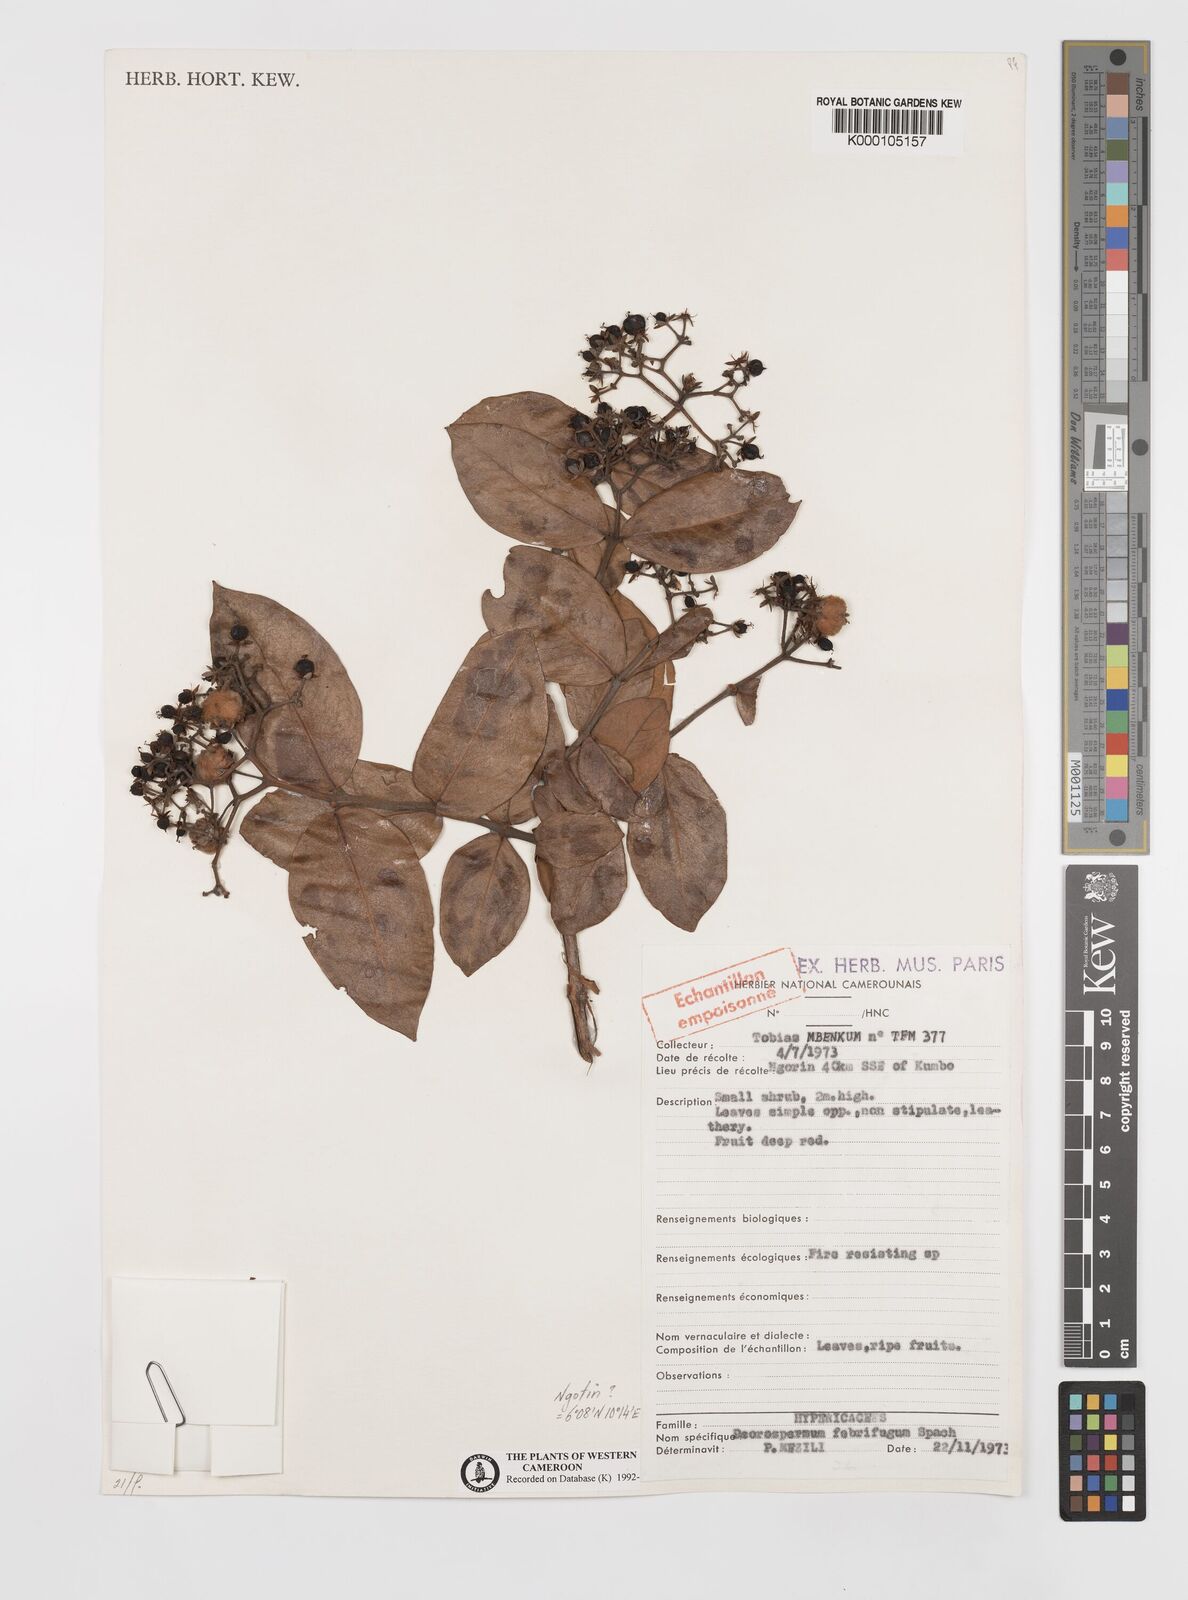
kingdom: Plantae
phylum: Tracheophyta
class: Magnoliopsida
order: Malpighiales
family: Hypericaceae
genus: Psorospermum
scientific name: Psorospermum febrifugum
